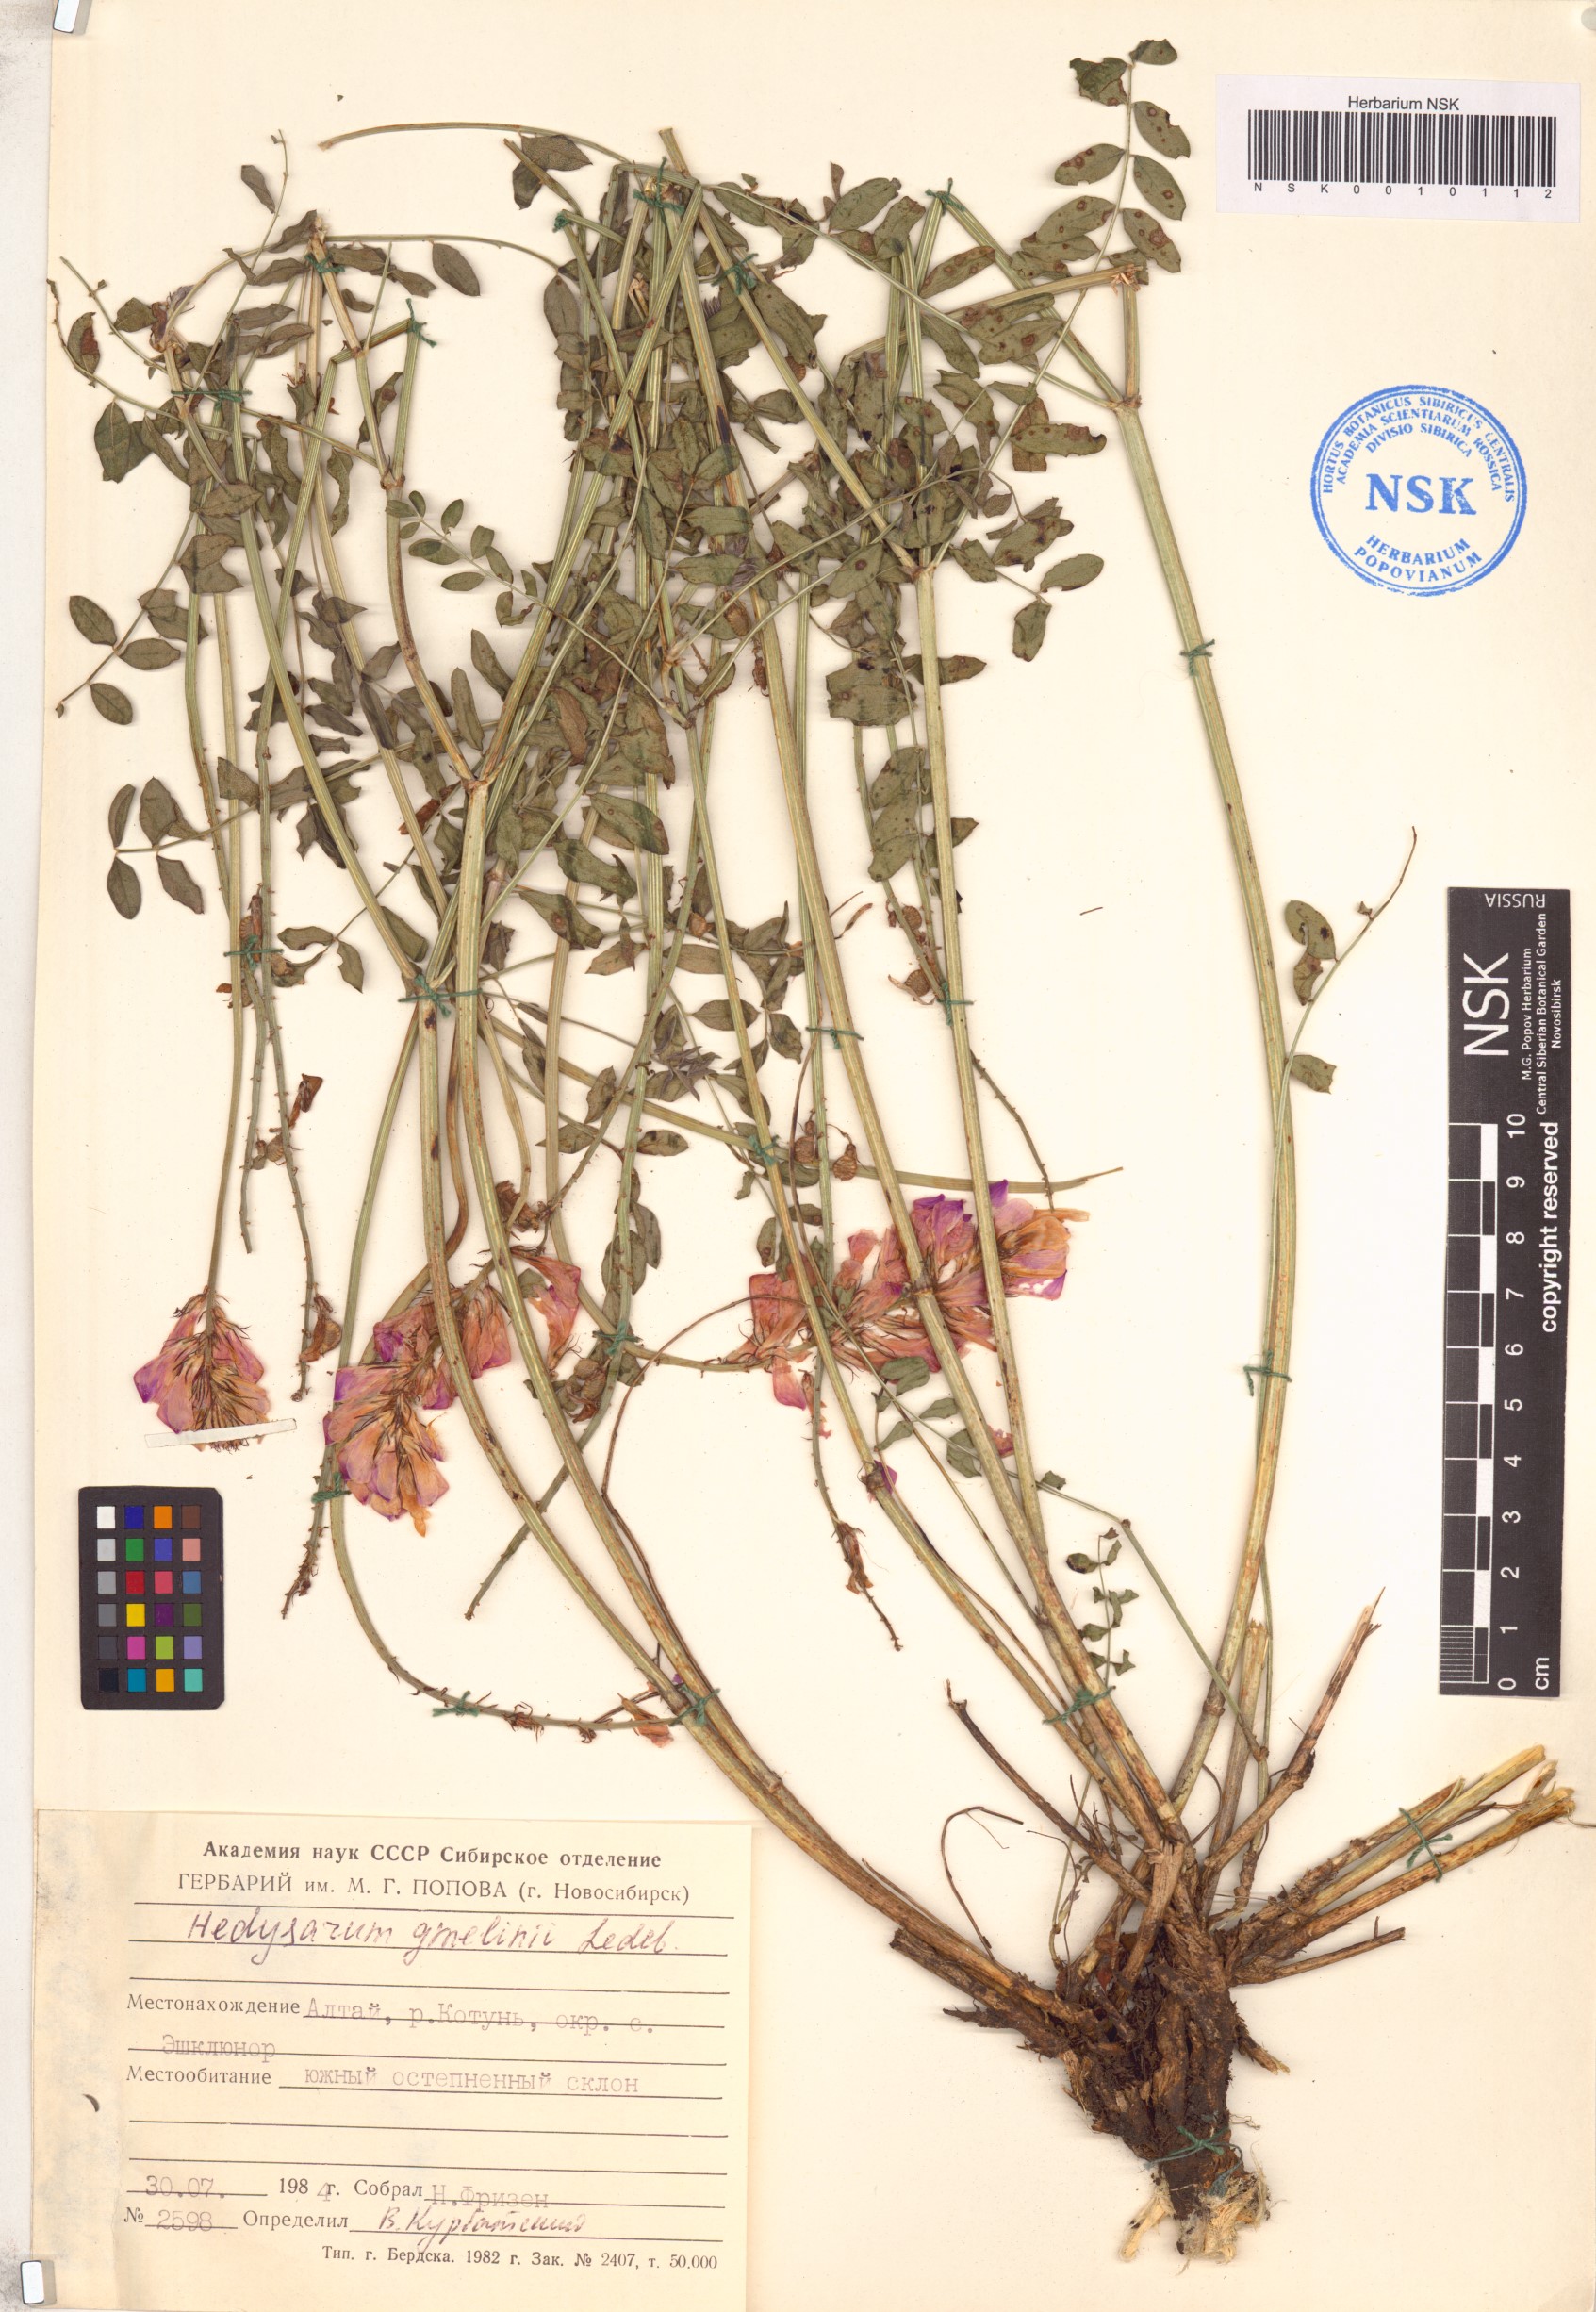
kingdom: Plantae
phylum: Tracheophyta
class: Magnoliopsida
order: Fabales
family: Fabaceae
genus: Hedysarum
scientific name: Hedysarum gmelinii
